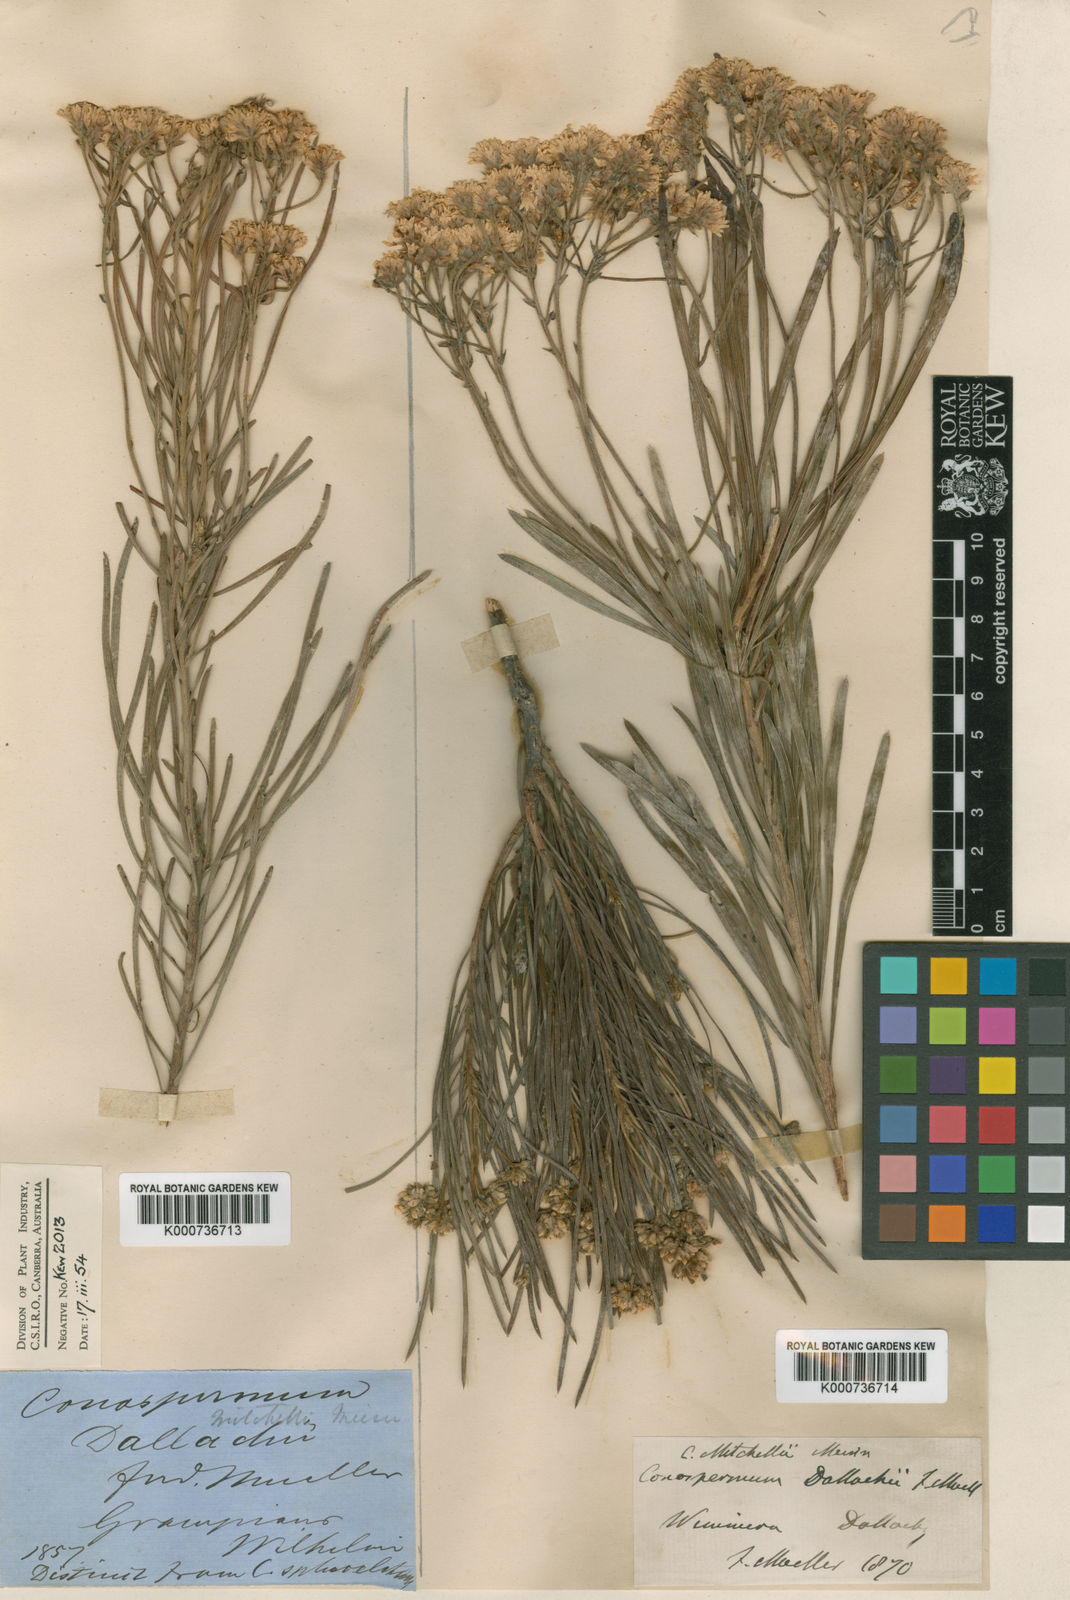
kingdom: Plantae
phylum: Tracheophyta
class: Magnoliopsida
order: Proteales
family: Proteaceae
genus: Conospermum
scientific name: Conospermum mitchellii
